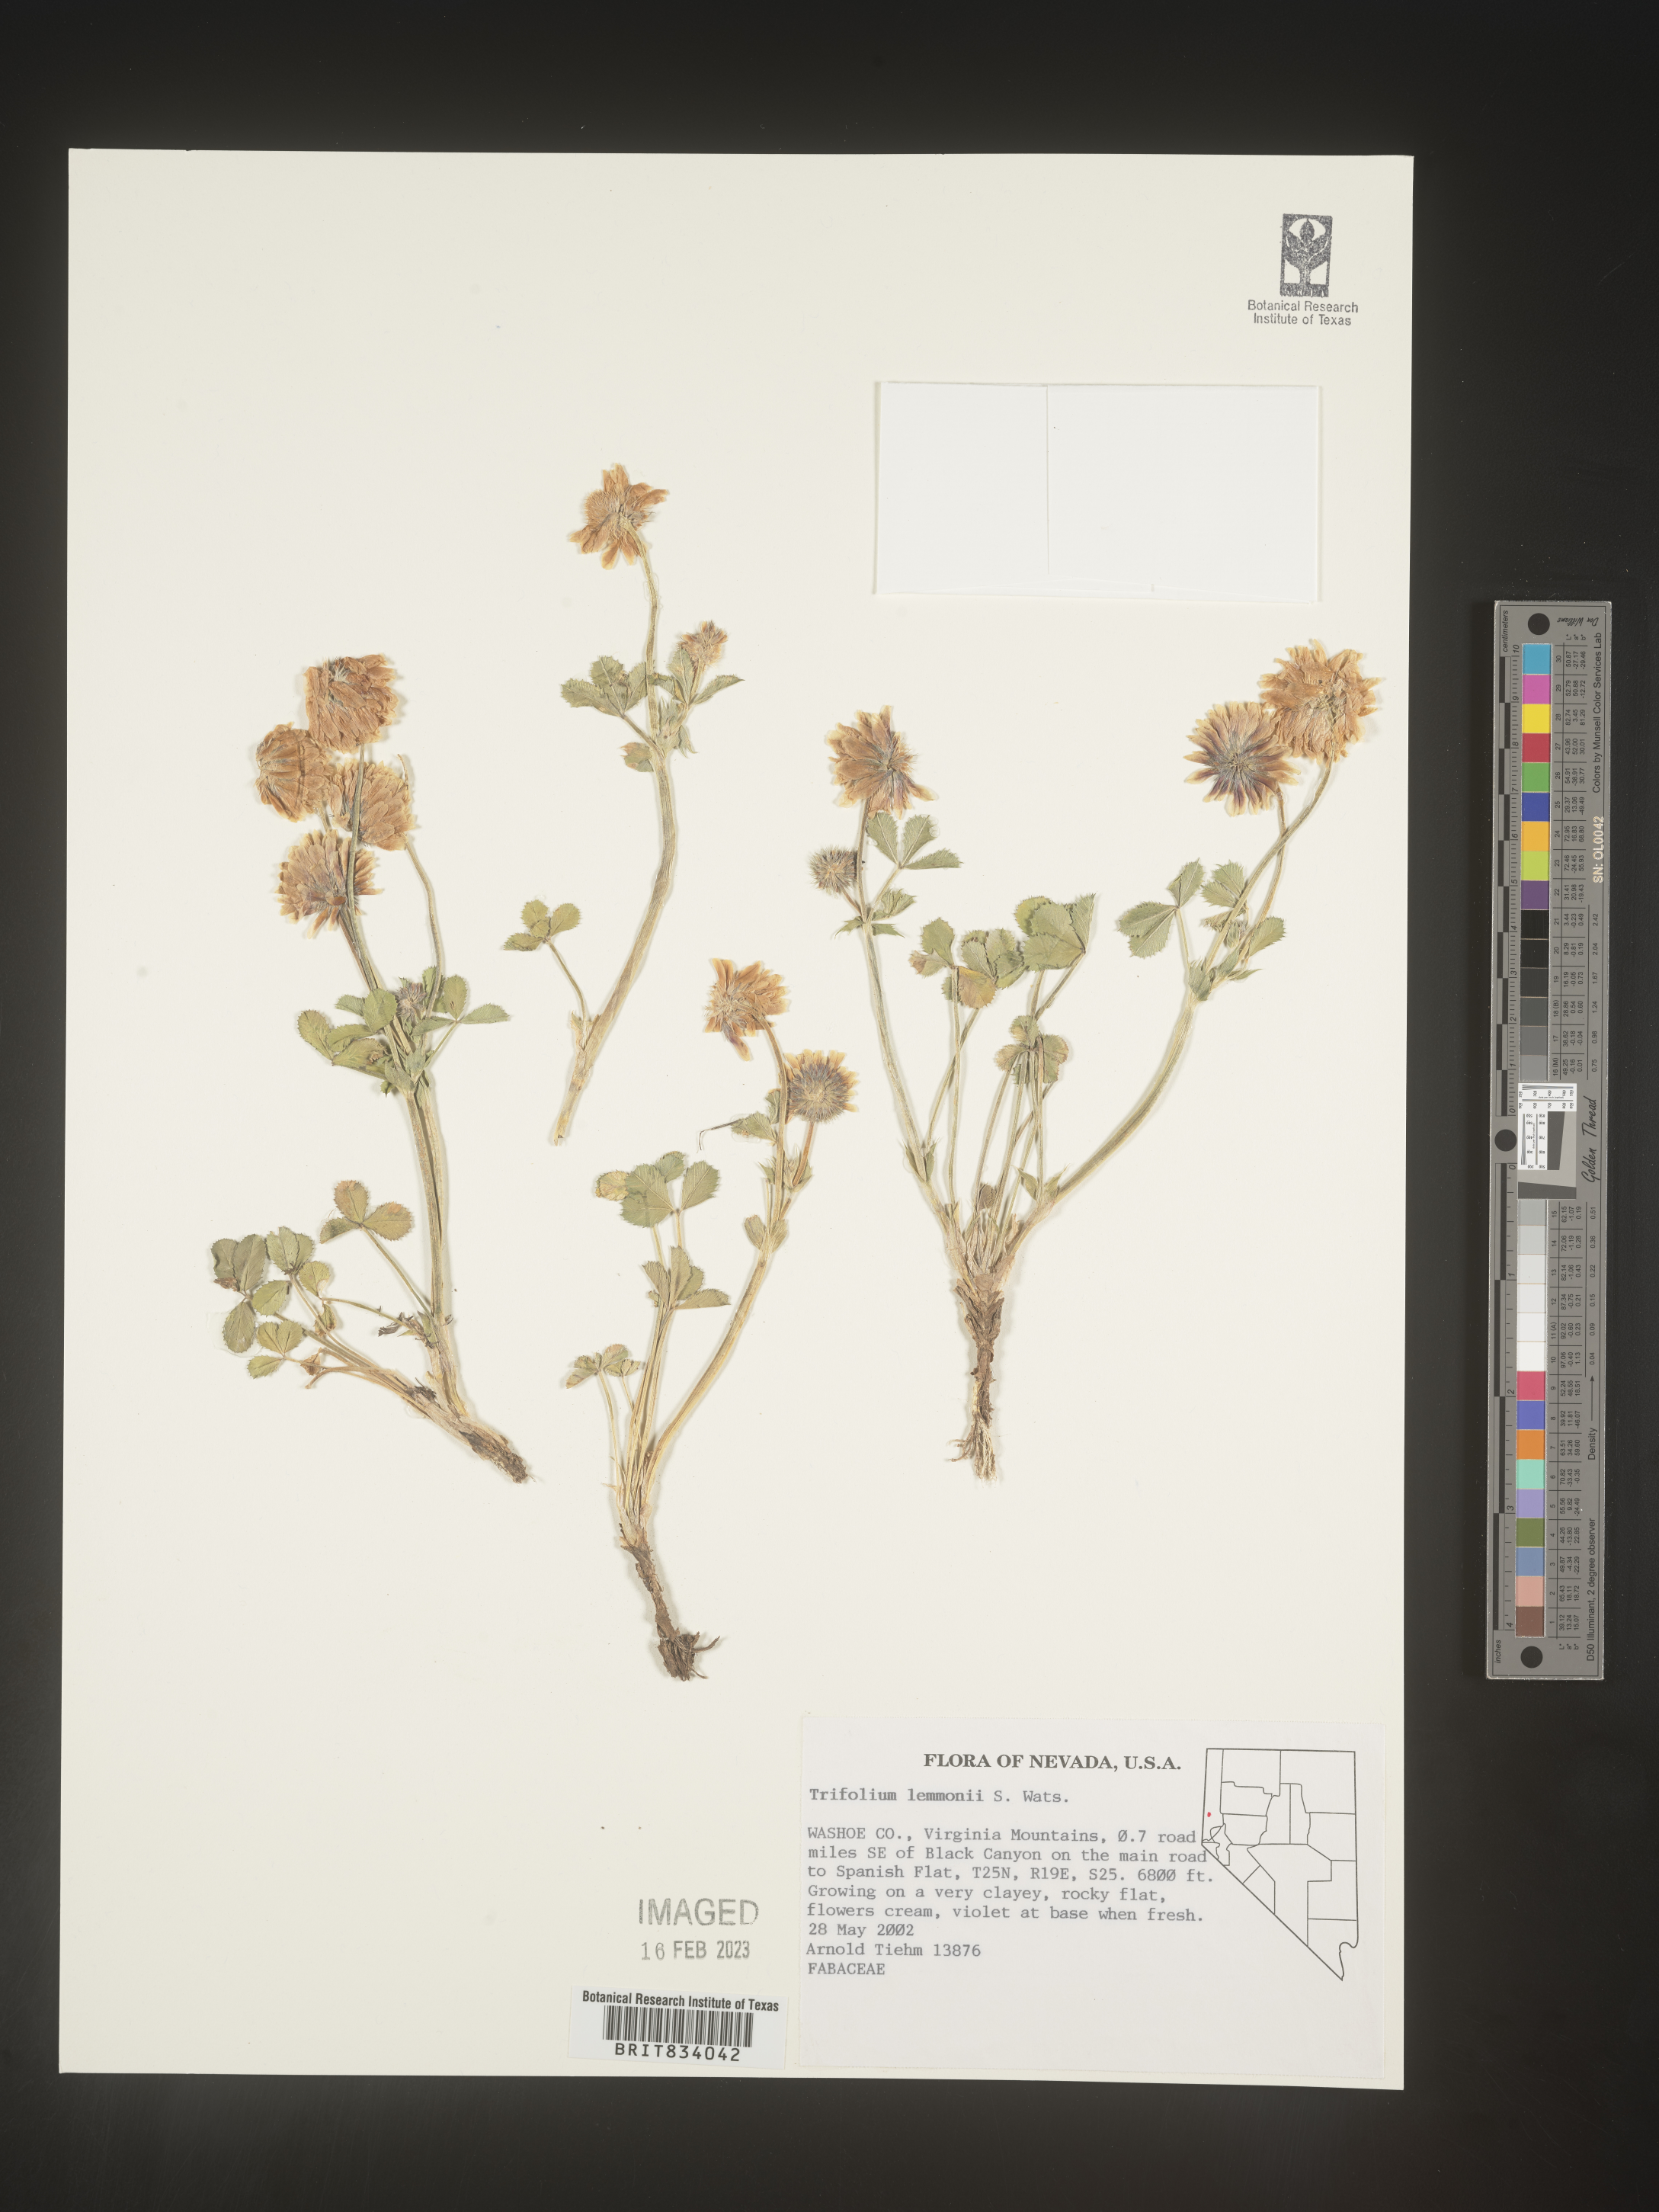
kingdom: Plantae
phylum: Tracheophyta
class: Magnoliopsida
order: Fabales
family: Fabaceae
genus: Trifolium
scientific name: Trifolium
